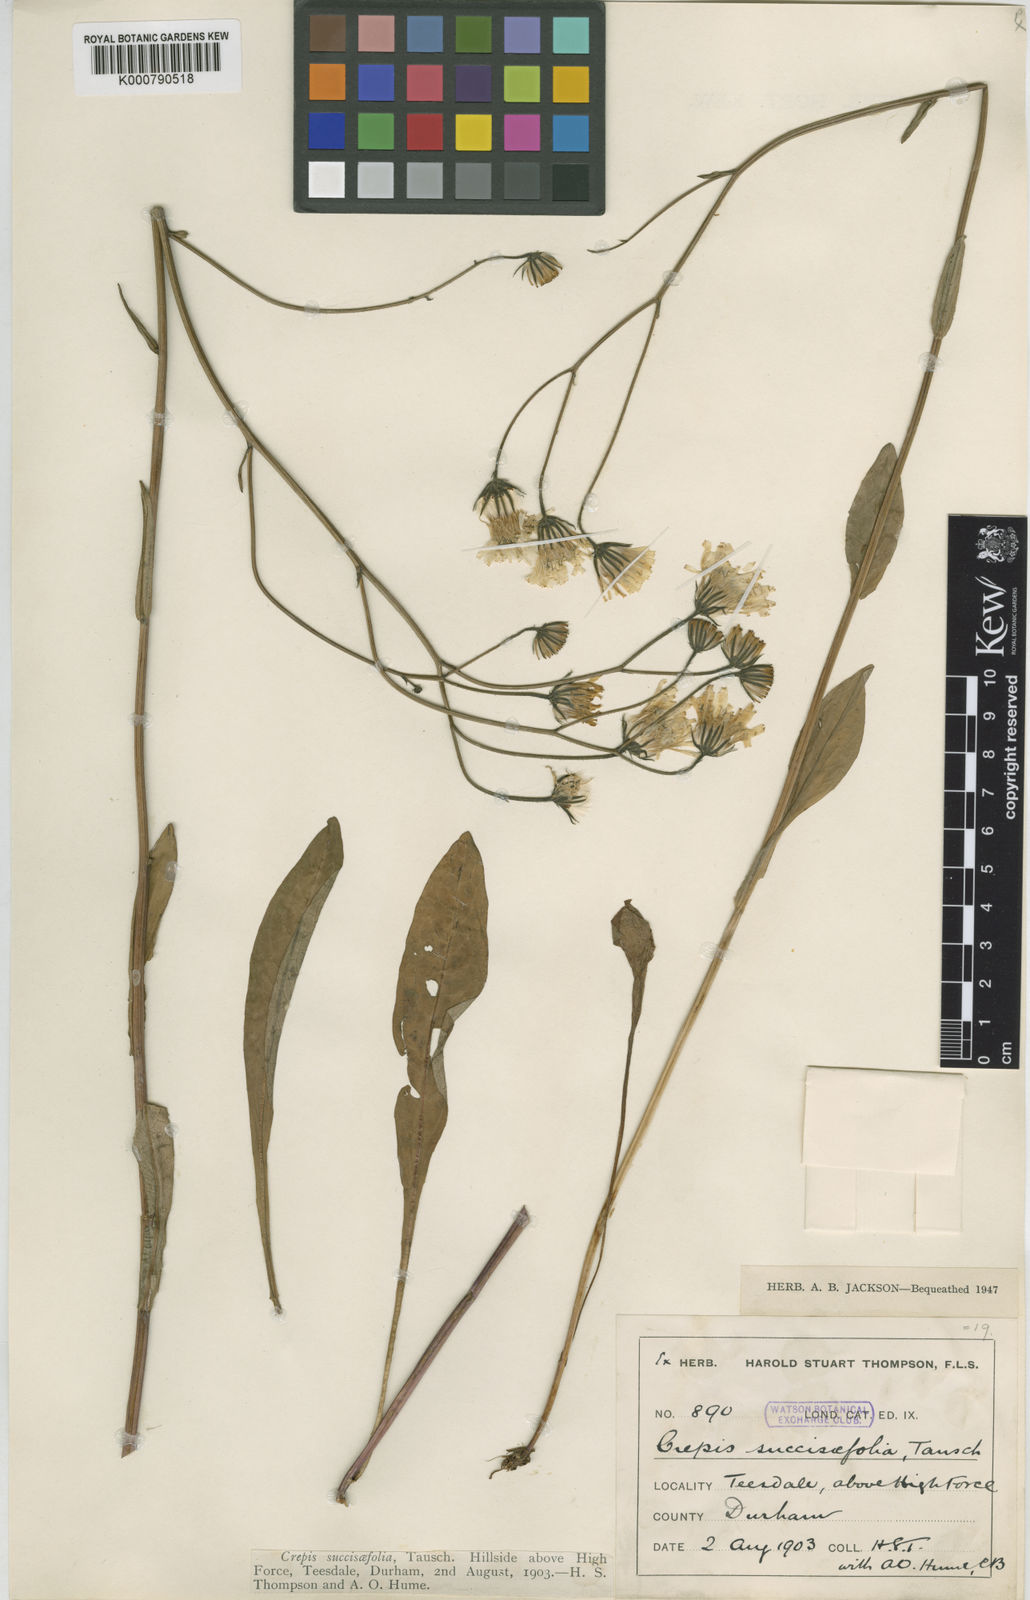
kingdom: Plantae
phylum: Tracheophyta
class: Magnoliopsida
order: Asterales
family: Asteraceae
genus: Crepis
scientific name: Crepis mollis
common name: Northern hawk's-beard
